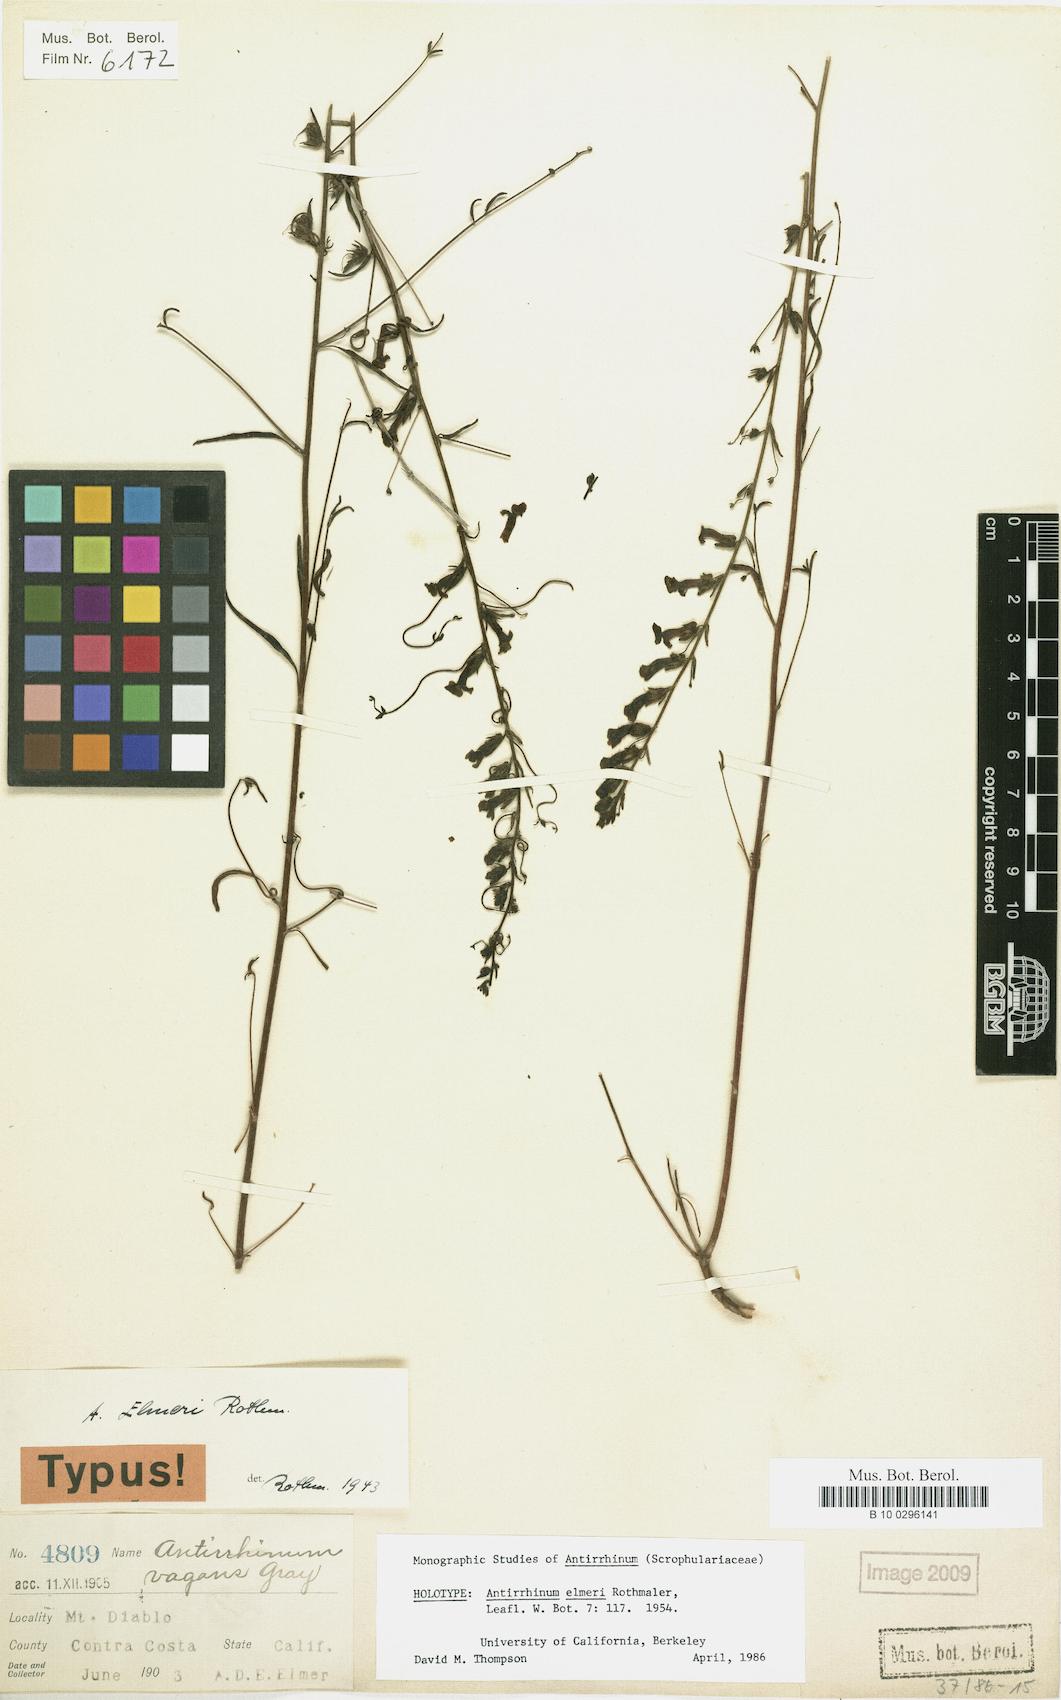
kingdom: Plantae
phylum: Tracheophyta
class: Magnoliopsida
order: Lamiales
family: Plantaginaceae
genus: Sairocarpus
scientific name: Sairocarpus vexillocalyculatus
